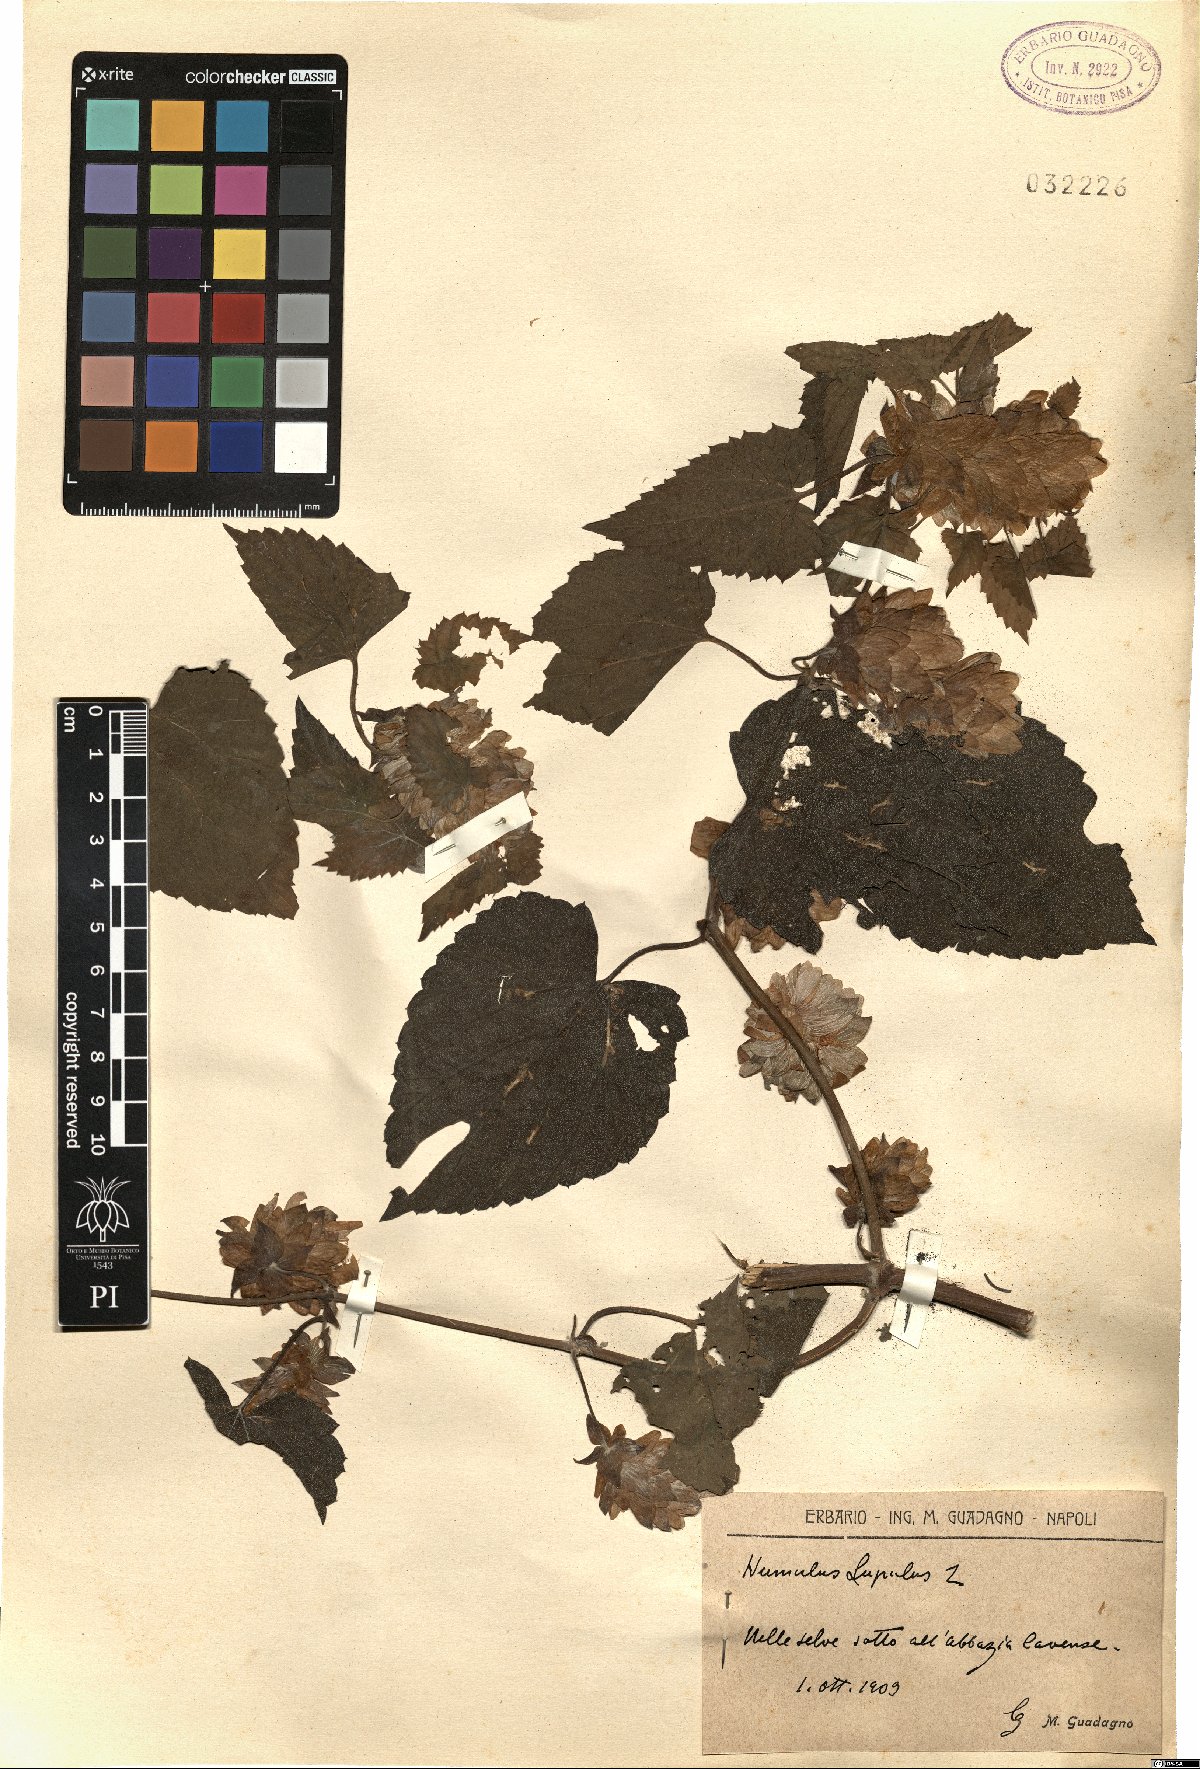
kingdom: Plantae
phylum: Tracheophyta
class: Magnoliopsida
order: Rosales
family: Cannabaceae
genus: Humulus
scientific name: Humulus lupulus
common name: Hop
